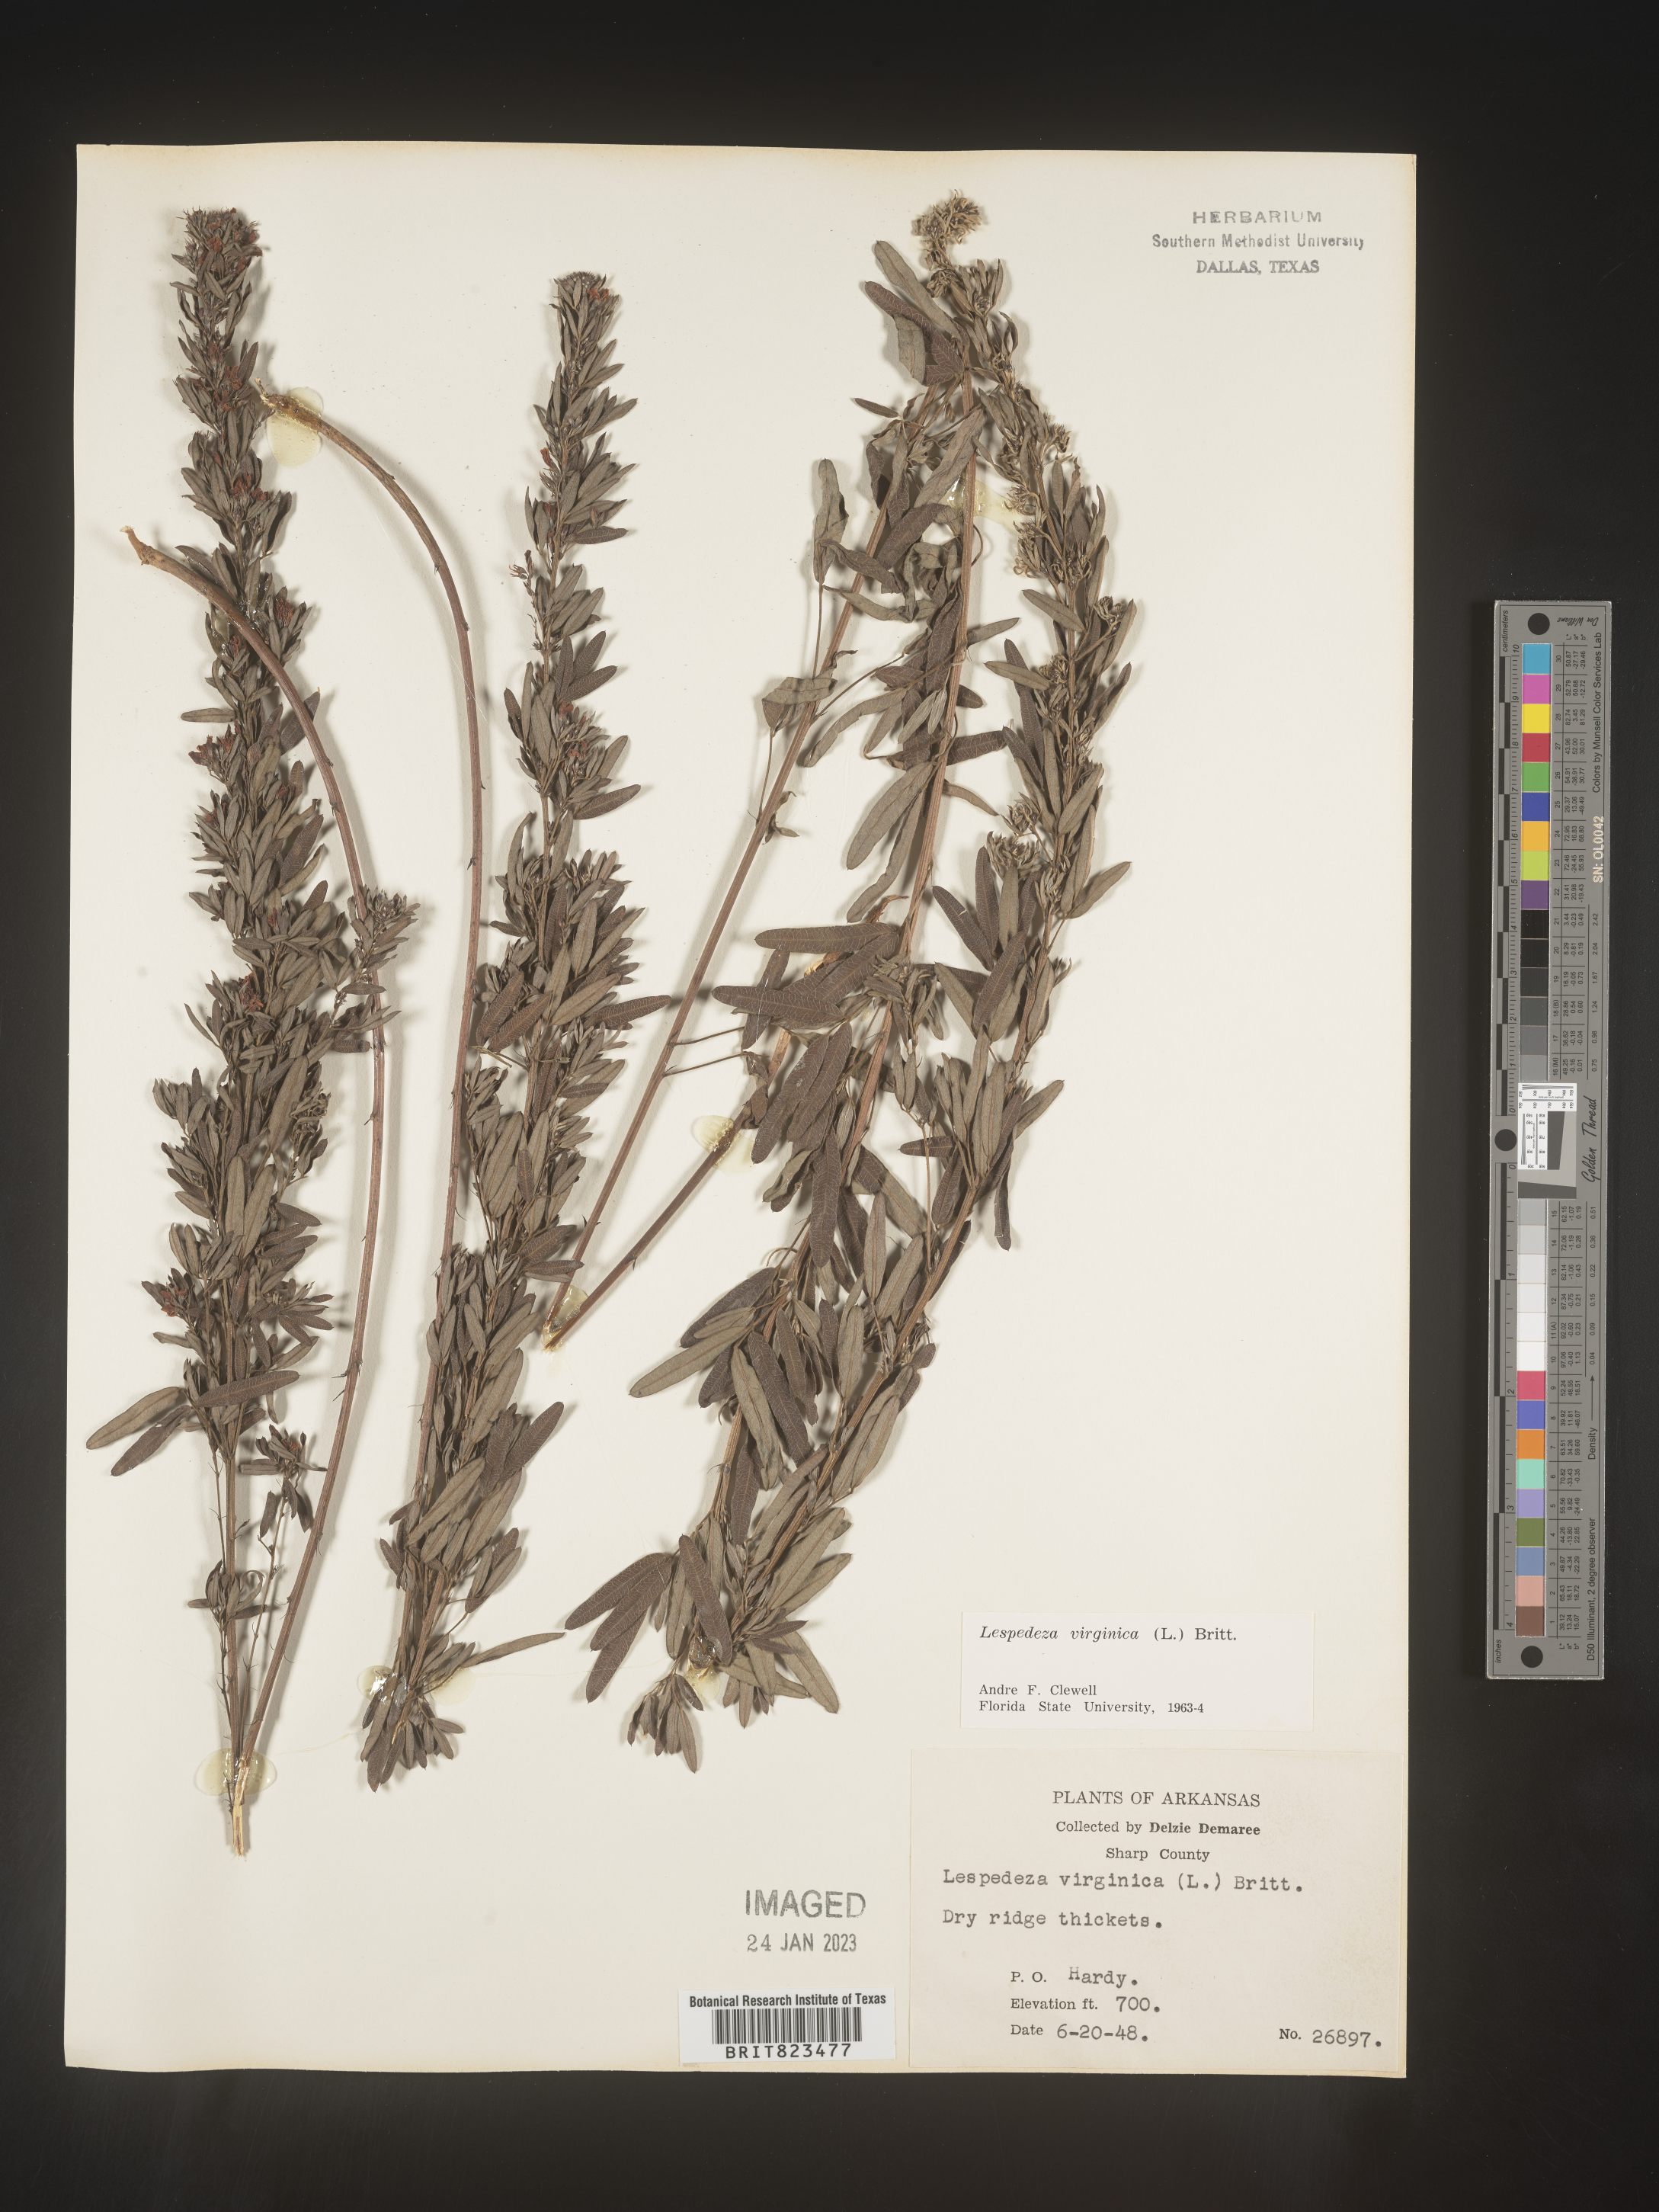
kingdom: Plantae
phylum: Tracheophyta
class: Magnoliopsida
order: Fabales
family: Fabaceae
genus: Lespedeza
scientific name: Lespedeza virginica
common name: Slender bush-clover
